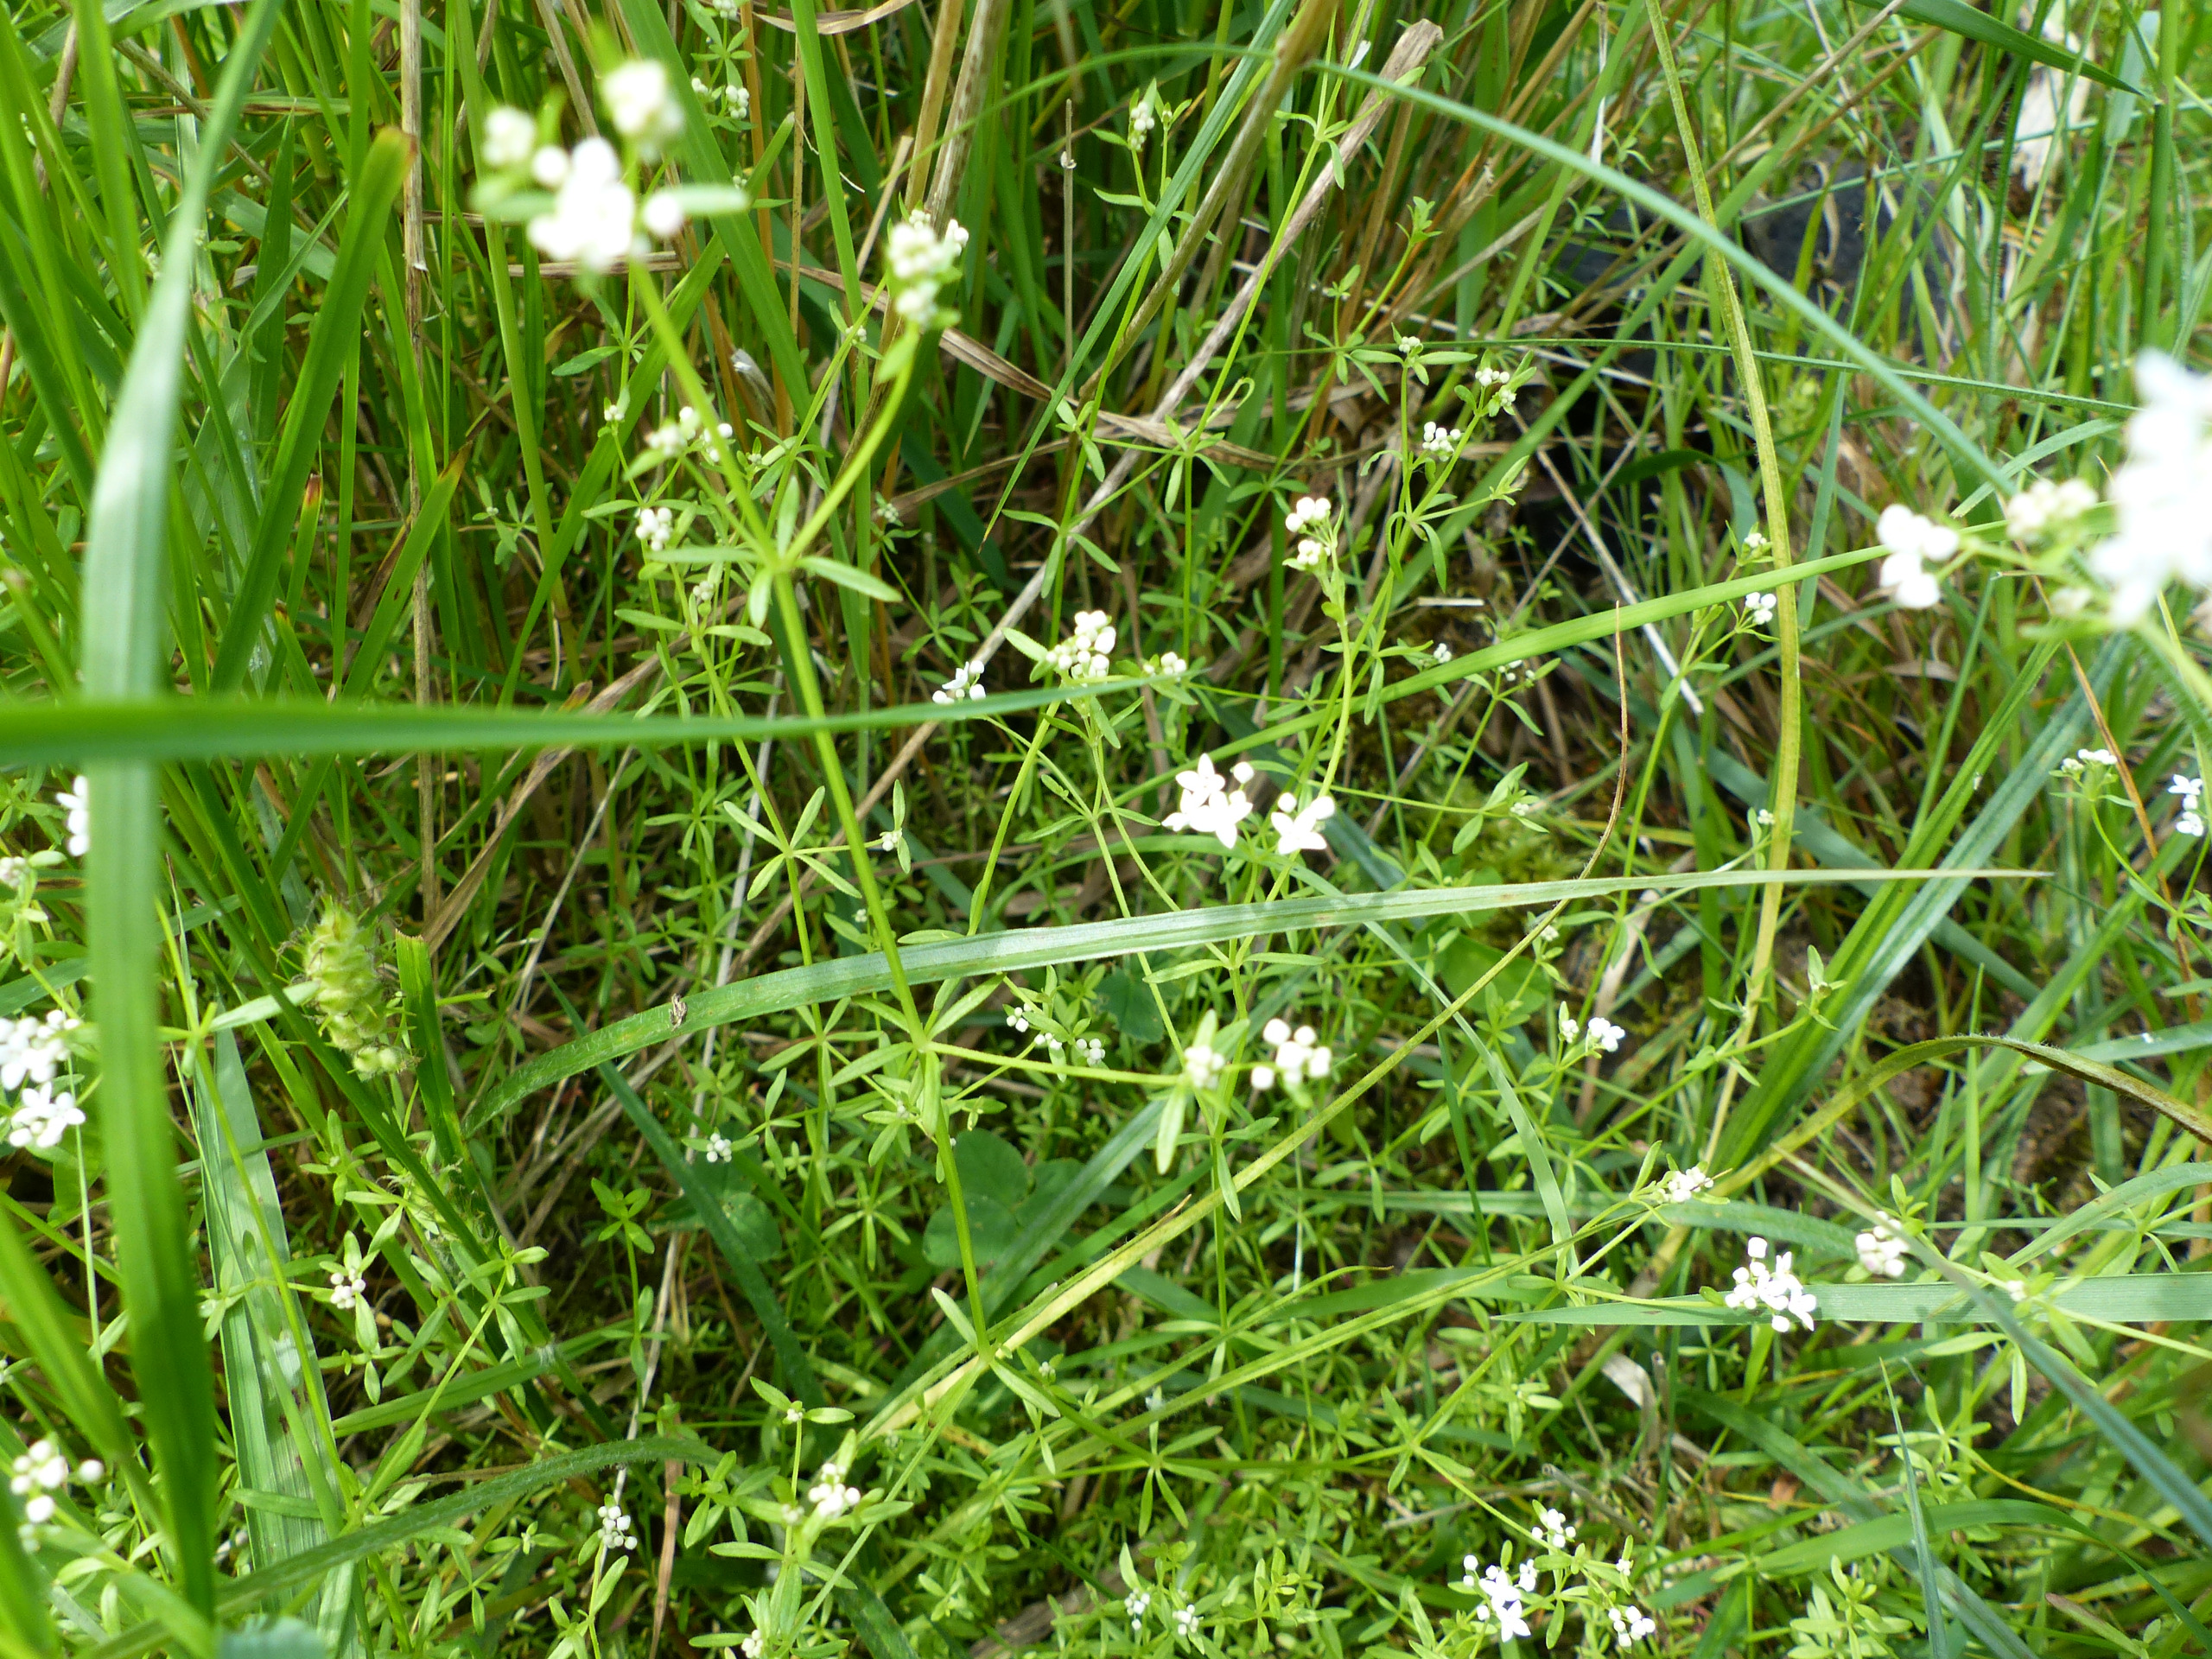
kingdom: Plantae
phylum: Tracheophyta
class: Magnoliopsida
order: Gentianales
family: Rubiaceae
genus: Galium
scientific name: Galium palustre
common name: Kær-snerre
